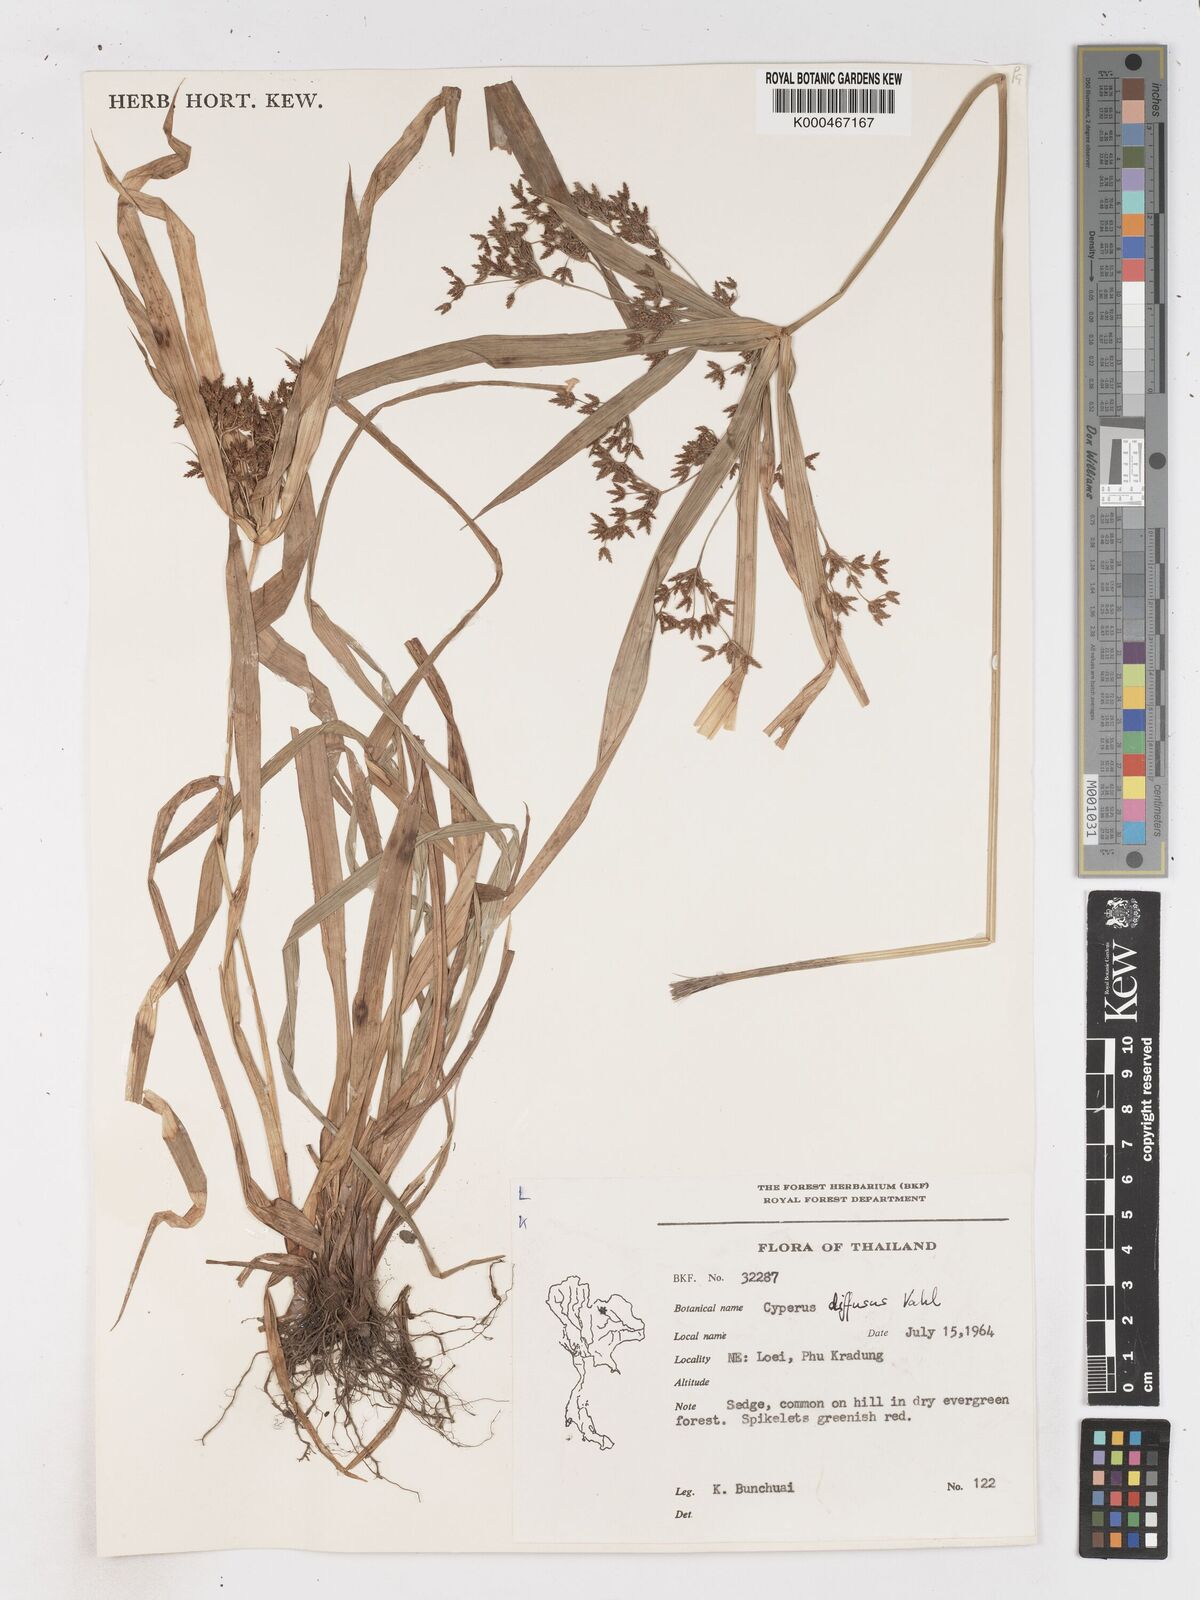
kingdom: Plantae
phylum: Tracheophyta
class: Liliopsida
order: Poales
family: Cyperaceae
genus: Cyperus
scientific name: Cyperus diffusus
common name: Dwarf umbrella grass
